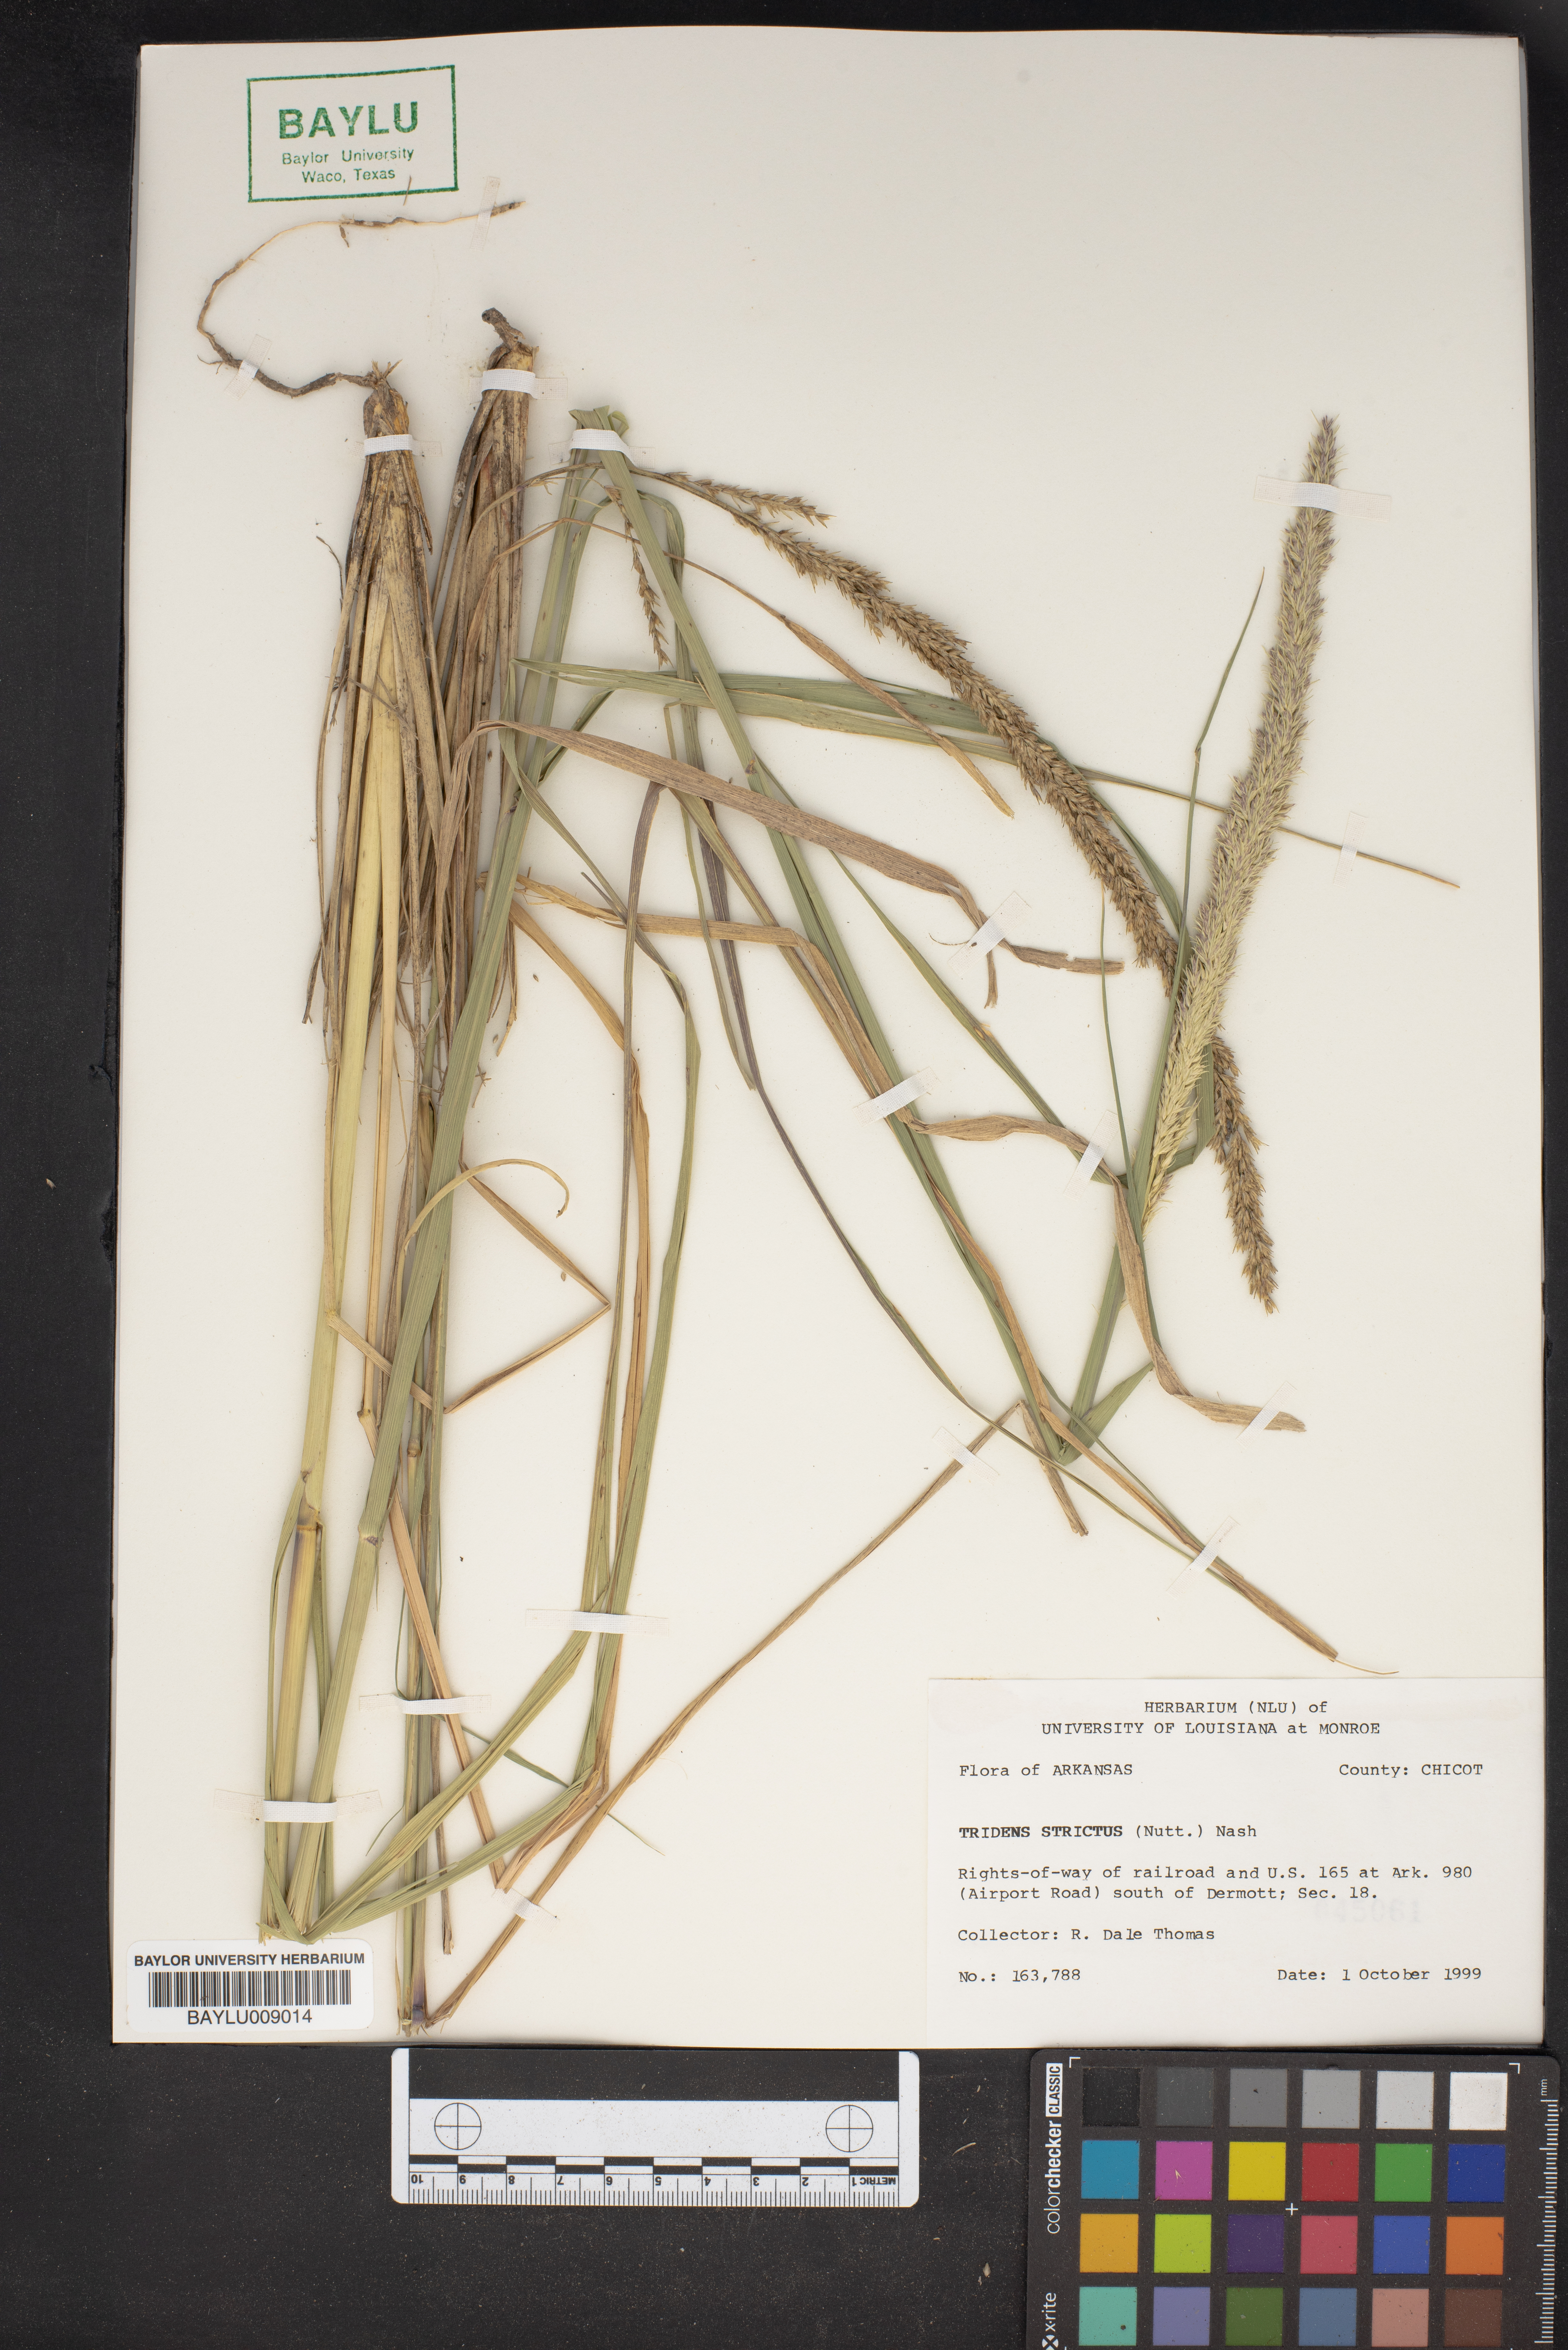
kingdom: Plantae
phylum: Tracheophyta
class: Liliopsida
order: Poales
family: Poaceae
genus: Tridens
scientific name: Tridens strictus
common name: Long-spike tridens
